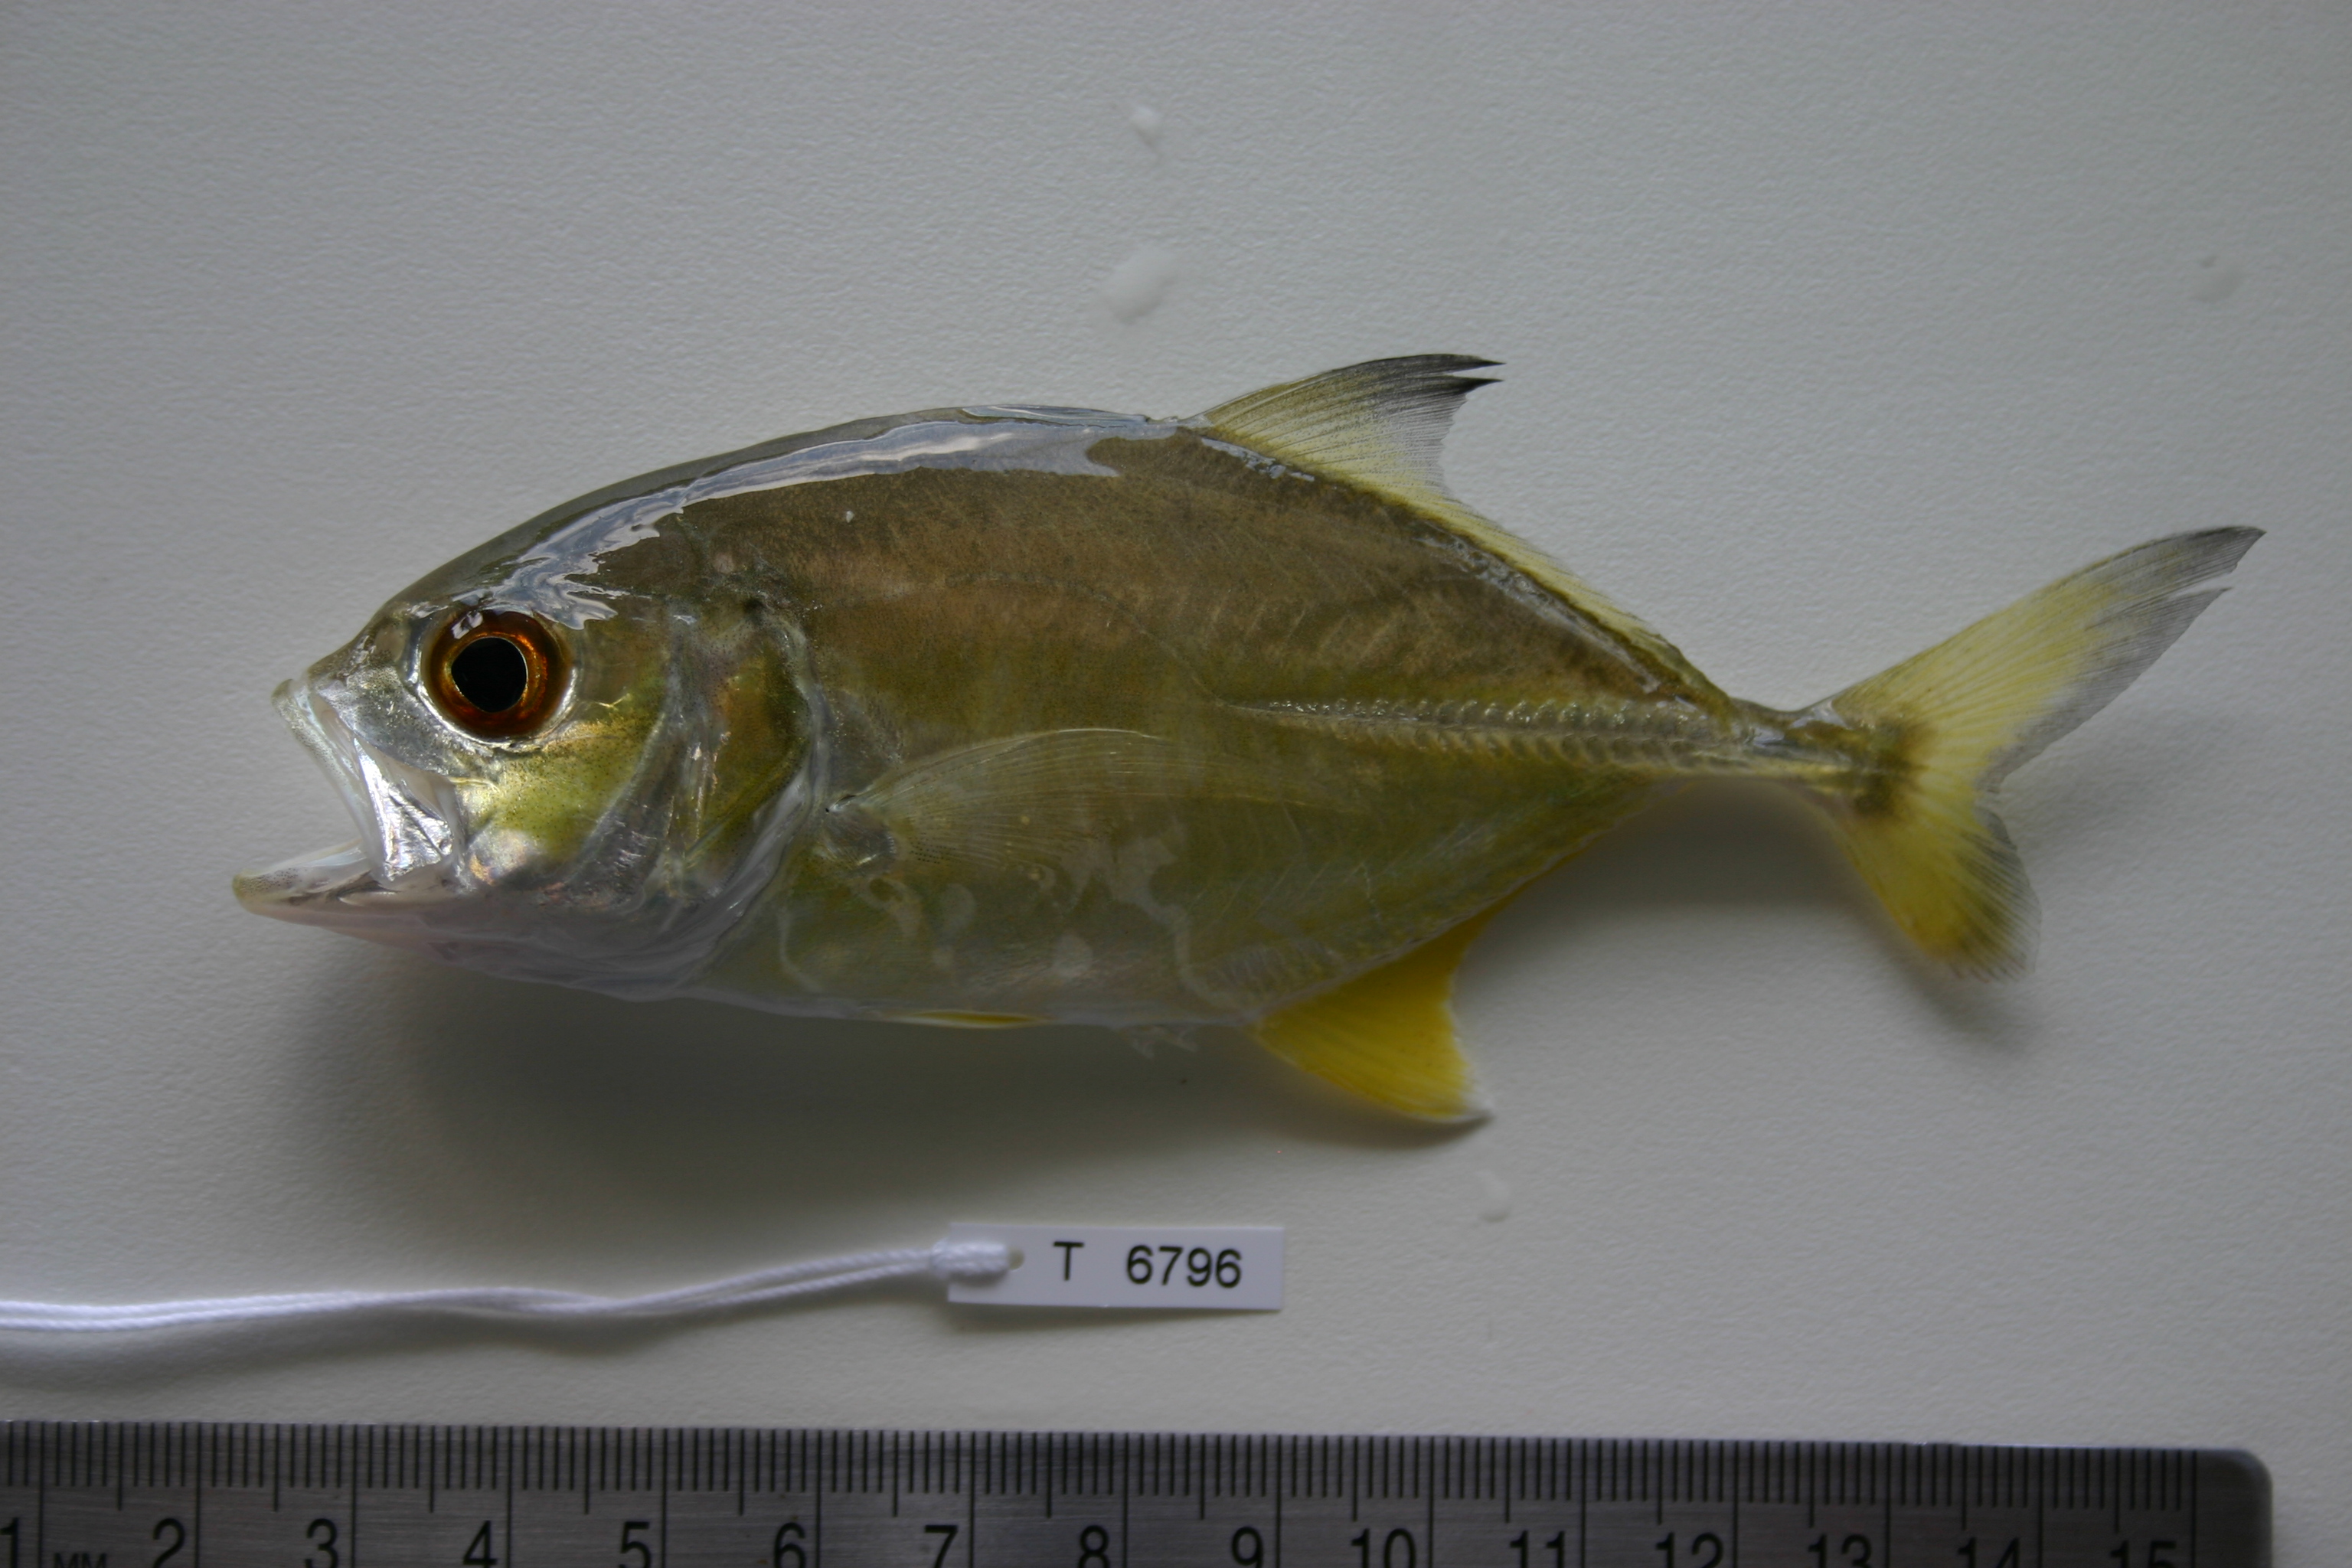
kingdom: Animalia
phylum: Chordata
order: Perciformes
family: Carangidae
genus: Caranx
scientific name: Caranx sexfasciatus
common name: Bigeye trevally
